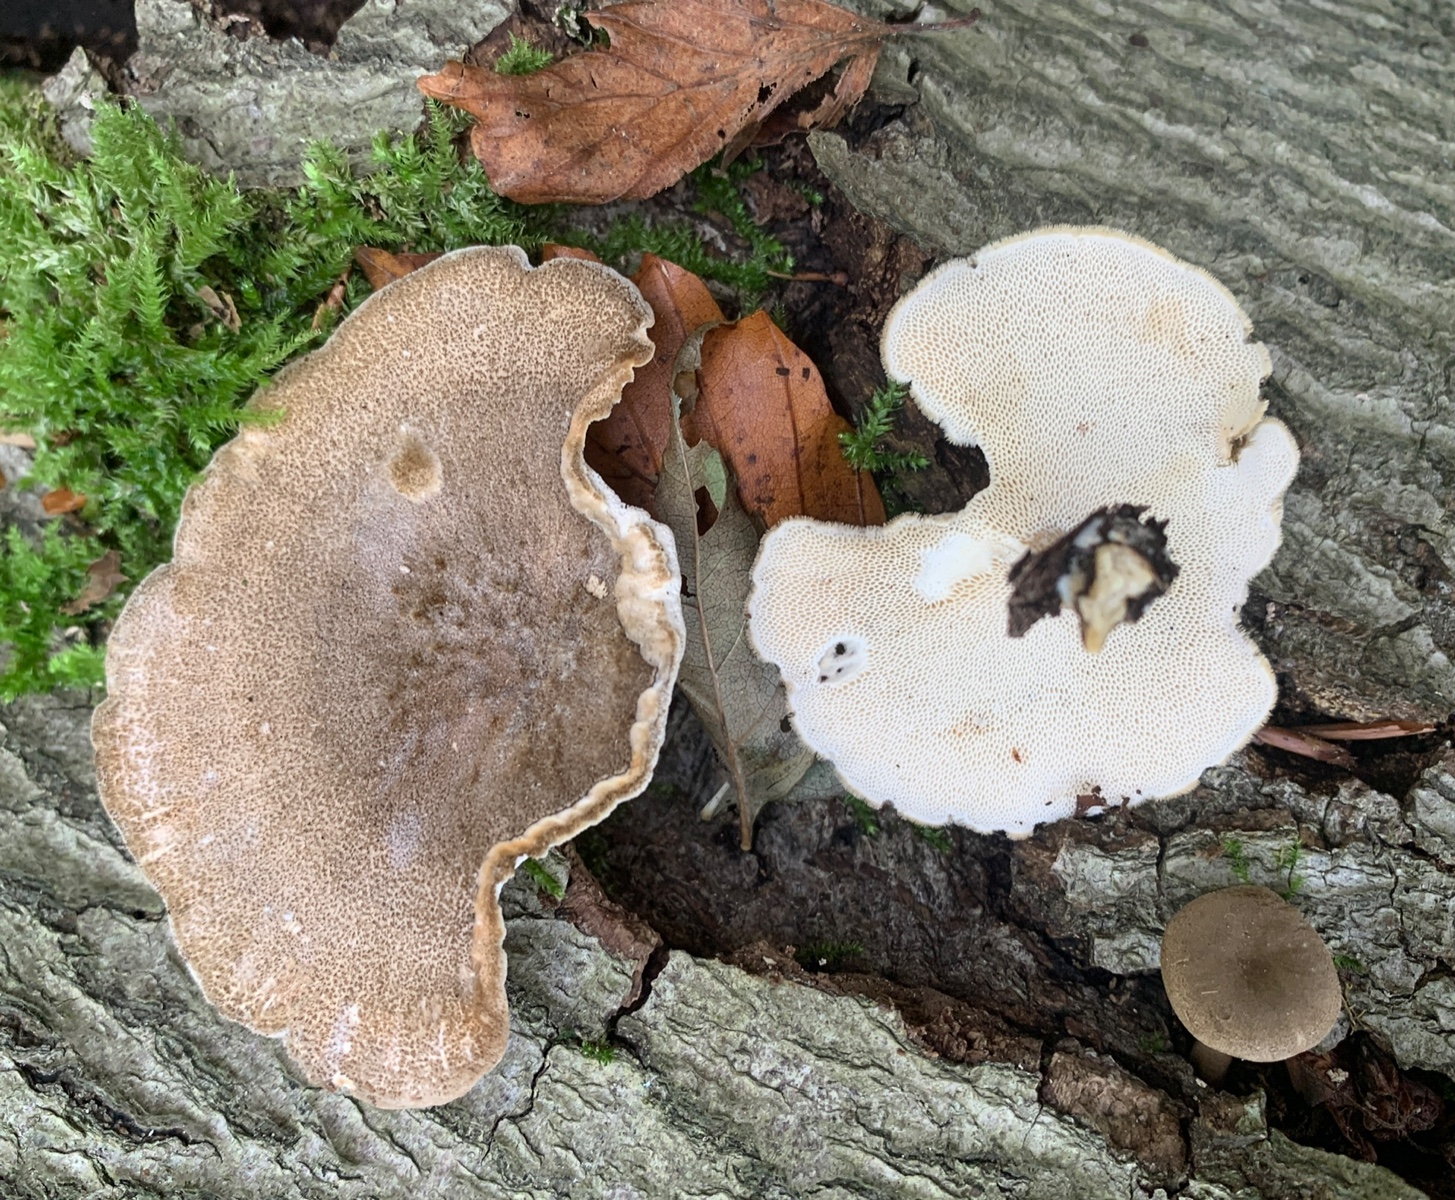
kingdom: Fungi
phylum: Basidiomycota
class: Agaricomycetes
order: Polyporales
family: Polyporaceae
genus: Lentinus
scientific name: Lentinus brumalis
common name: vinter-stilkporesvamp
